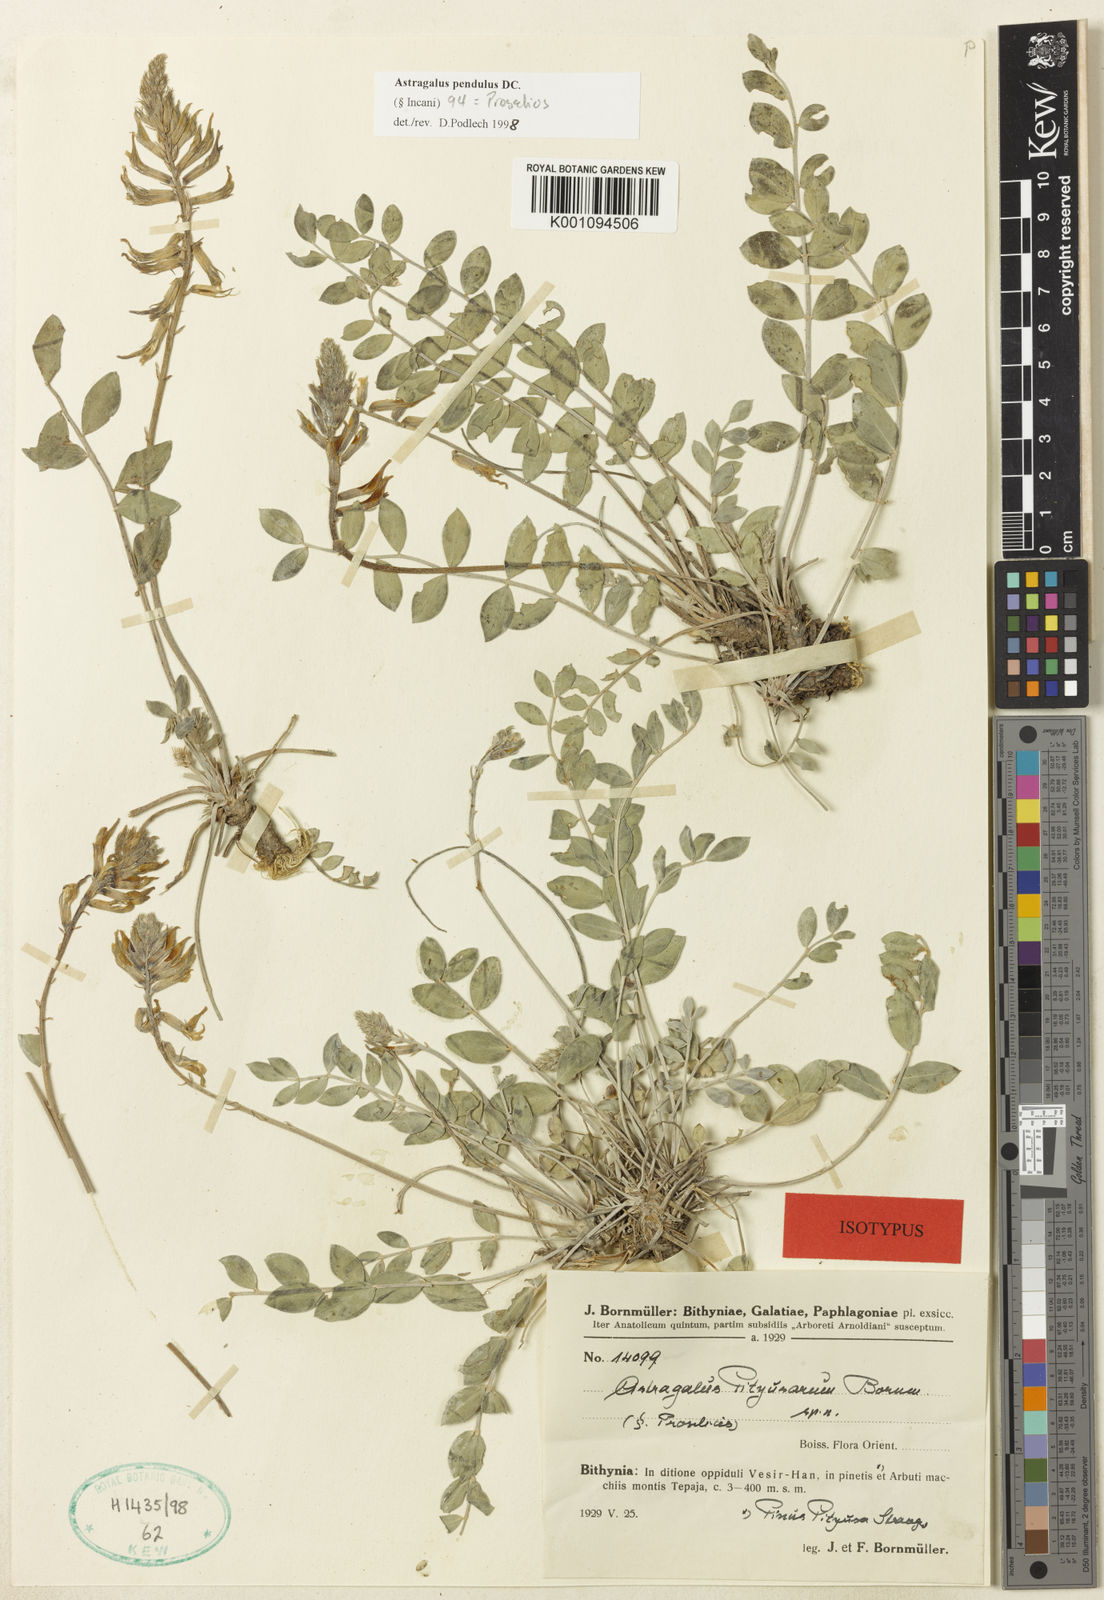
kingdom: Plantae
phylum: Tracheophyta
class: Magnoliopsida
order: Fabales
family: Fabaceae
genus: Astragalus
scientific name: Astragalus
